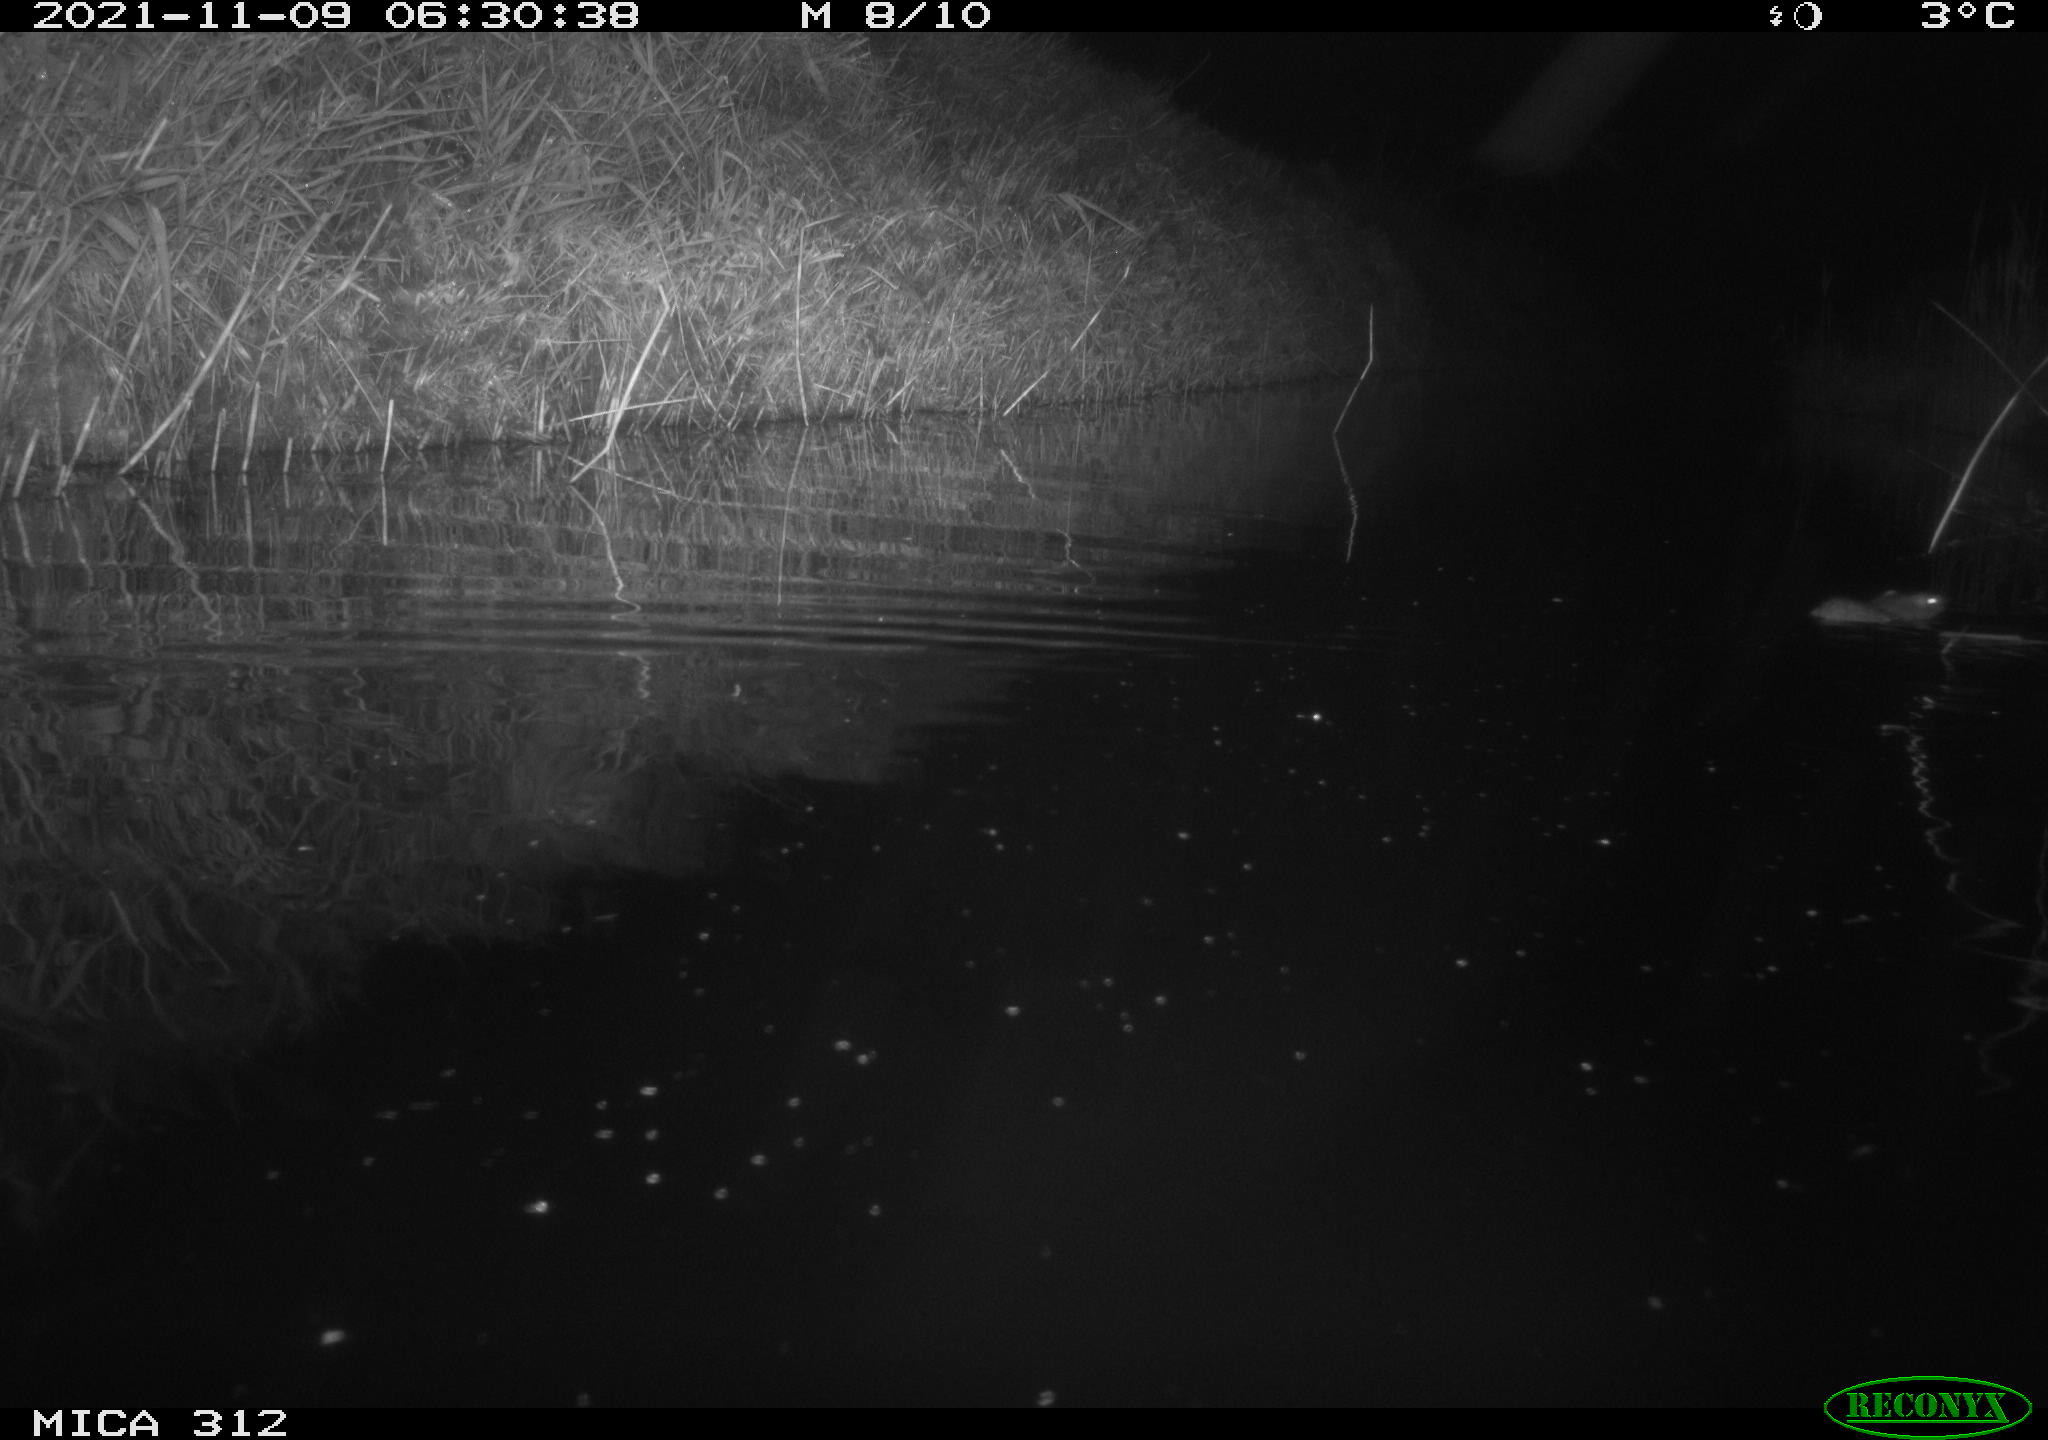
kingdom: Animalia
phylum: Chordata
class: Mammalia
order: Rodentia
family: Muridae
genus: Rattus
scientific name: Rattus norvegicus
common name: Brown rat
